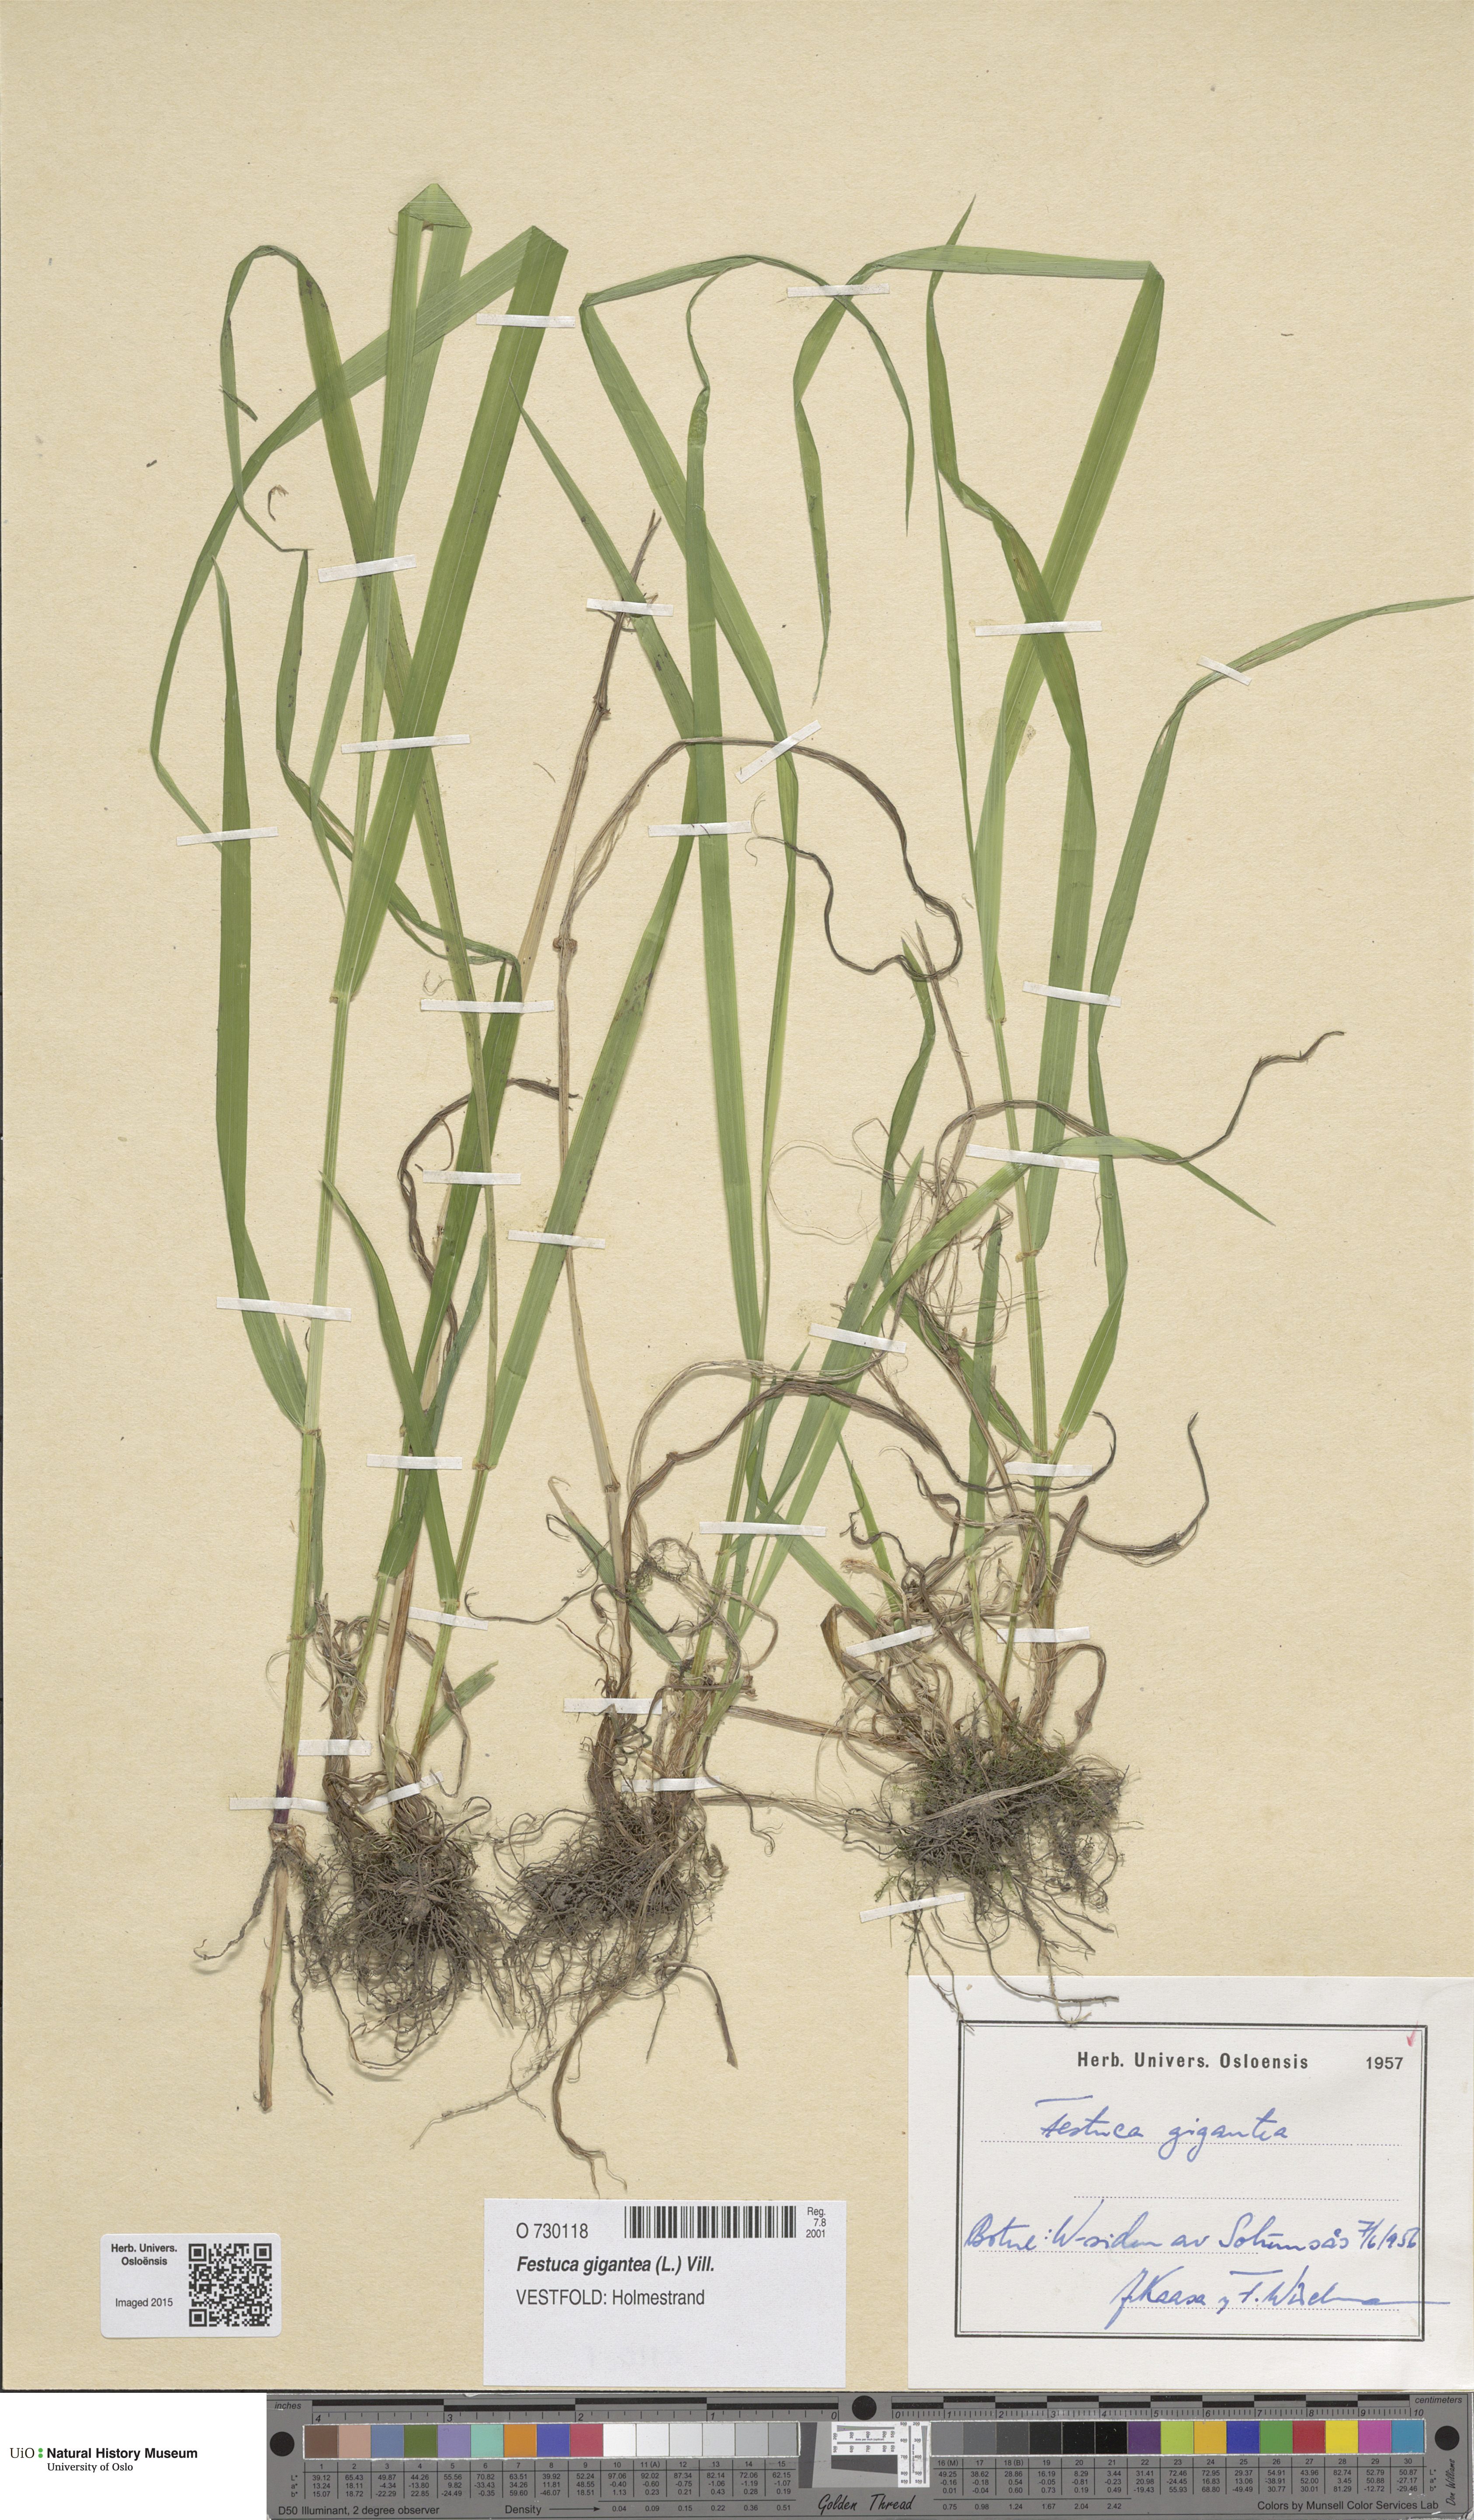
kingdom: Plantae
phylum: Tracheophyta
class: Liliopsida
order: Poales
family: Poaceae
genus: Lolium
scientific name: Lolium giganteum
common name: Giant fescue
